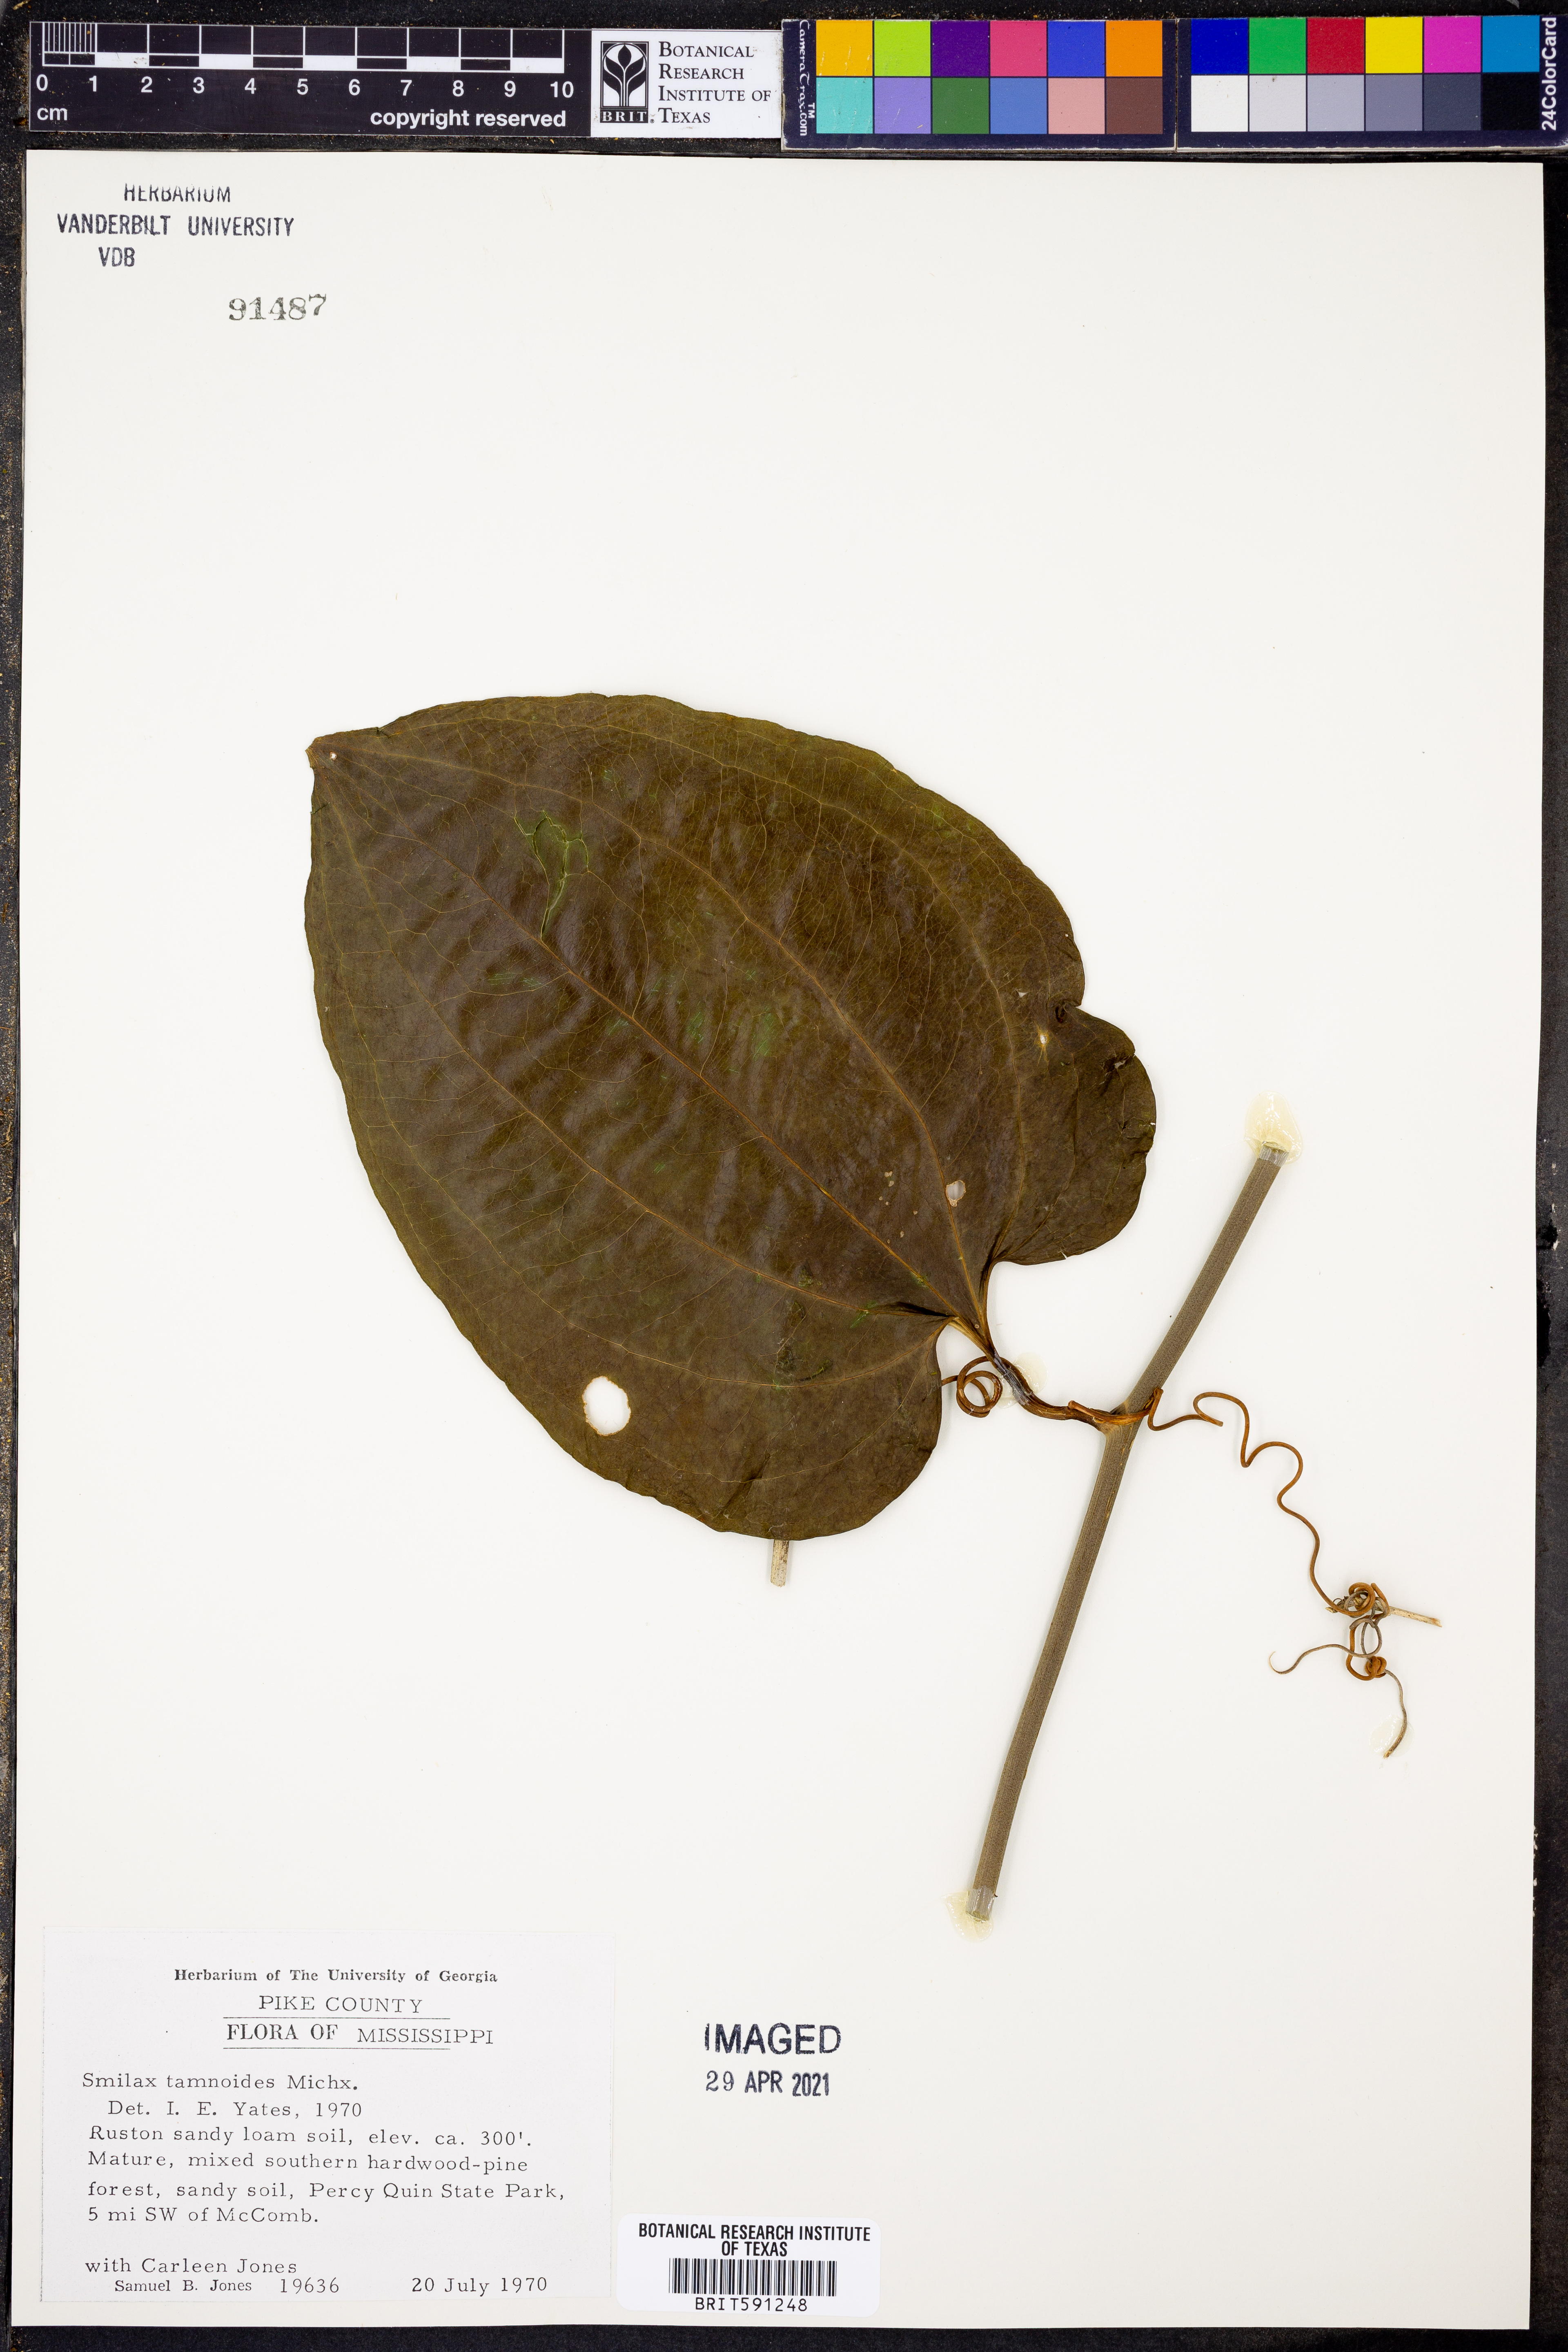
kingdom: Plantae
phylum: Tracheophyta
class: Liliopsida
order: Liliales
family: Smilacaceae
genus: Smilax
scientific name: Smilax tamnoides
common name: Hellfetter
